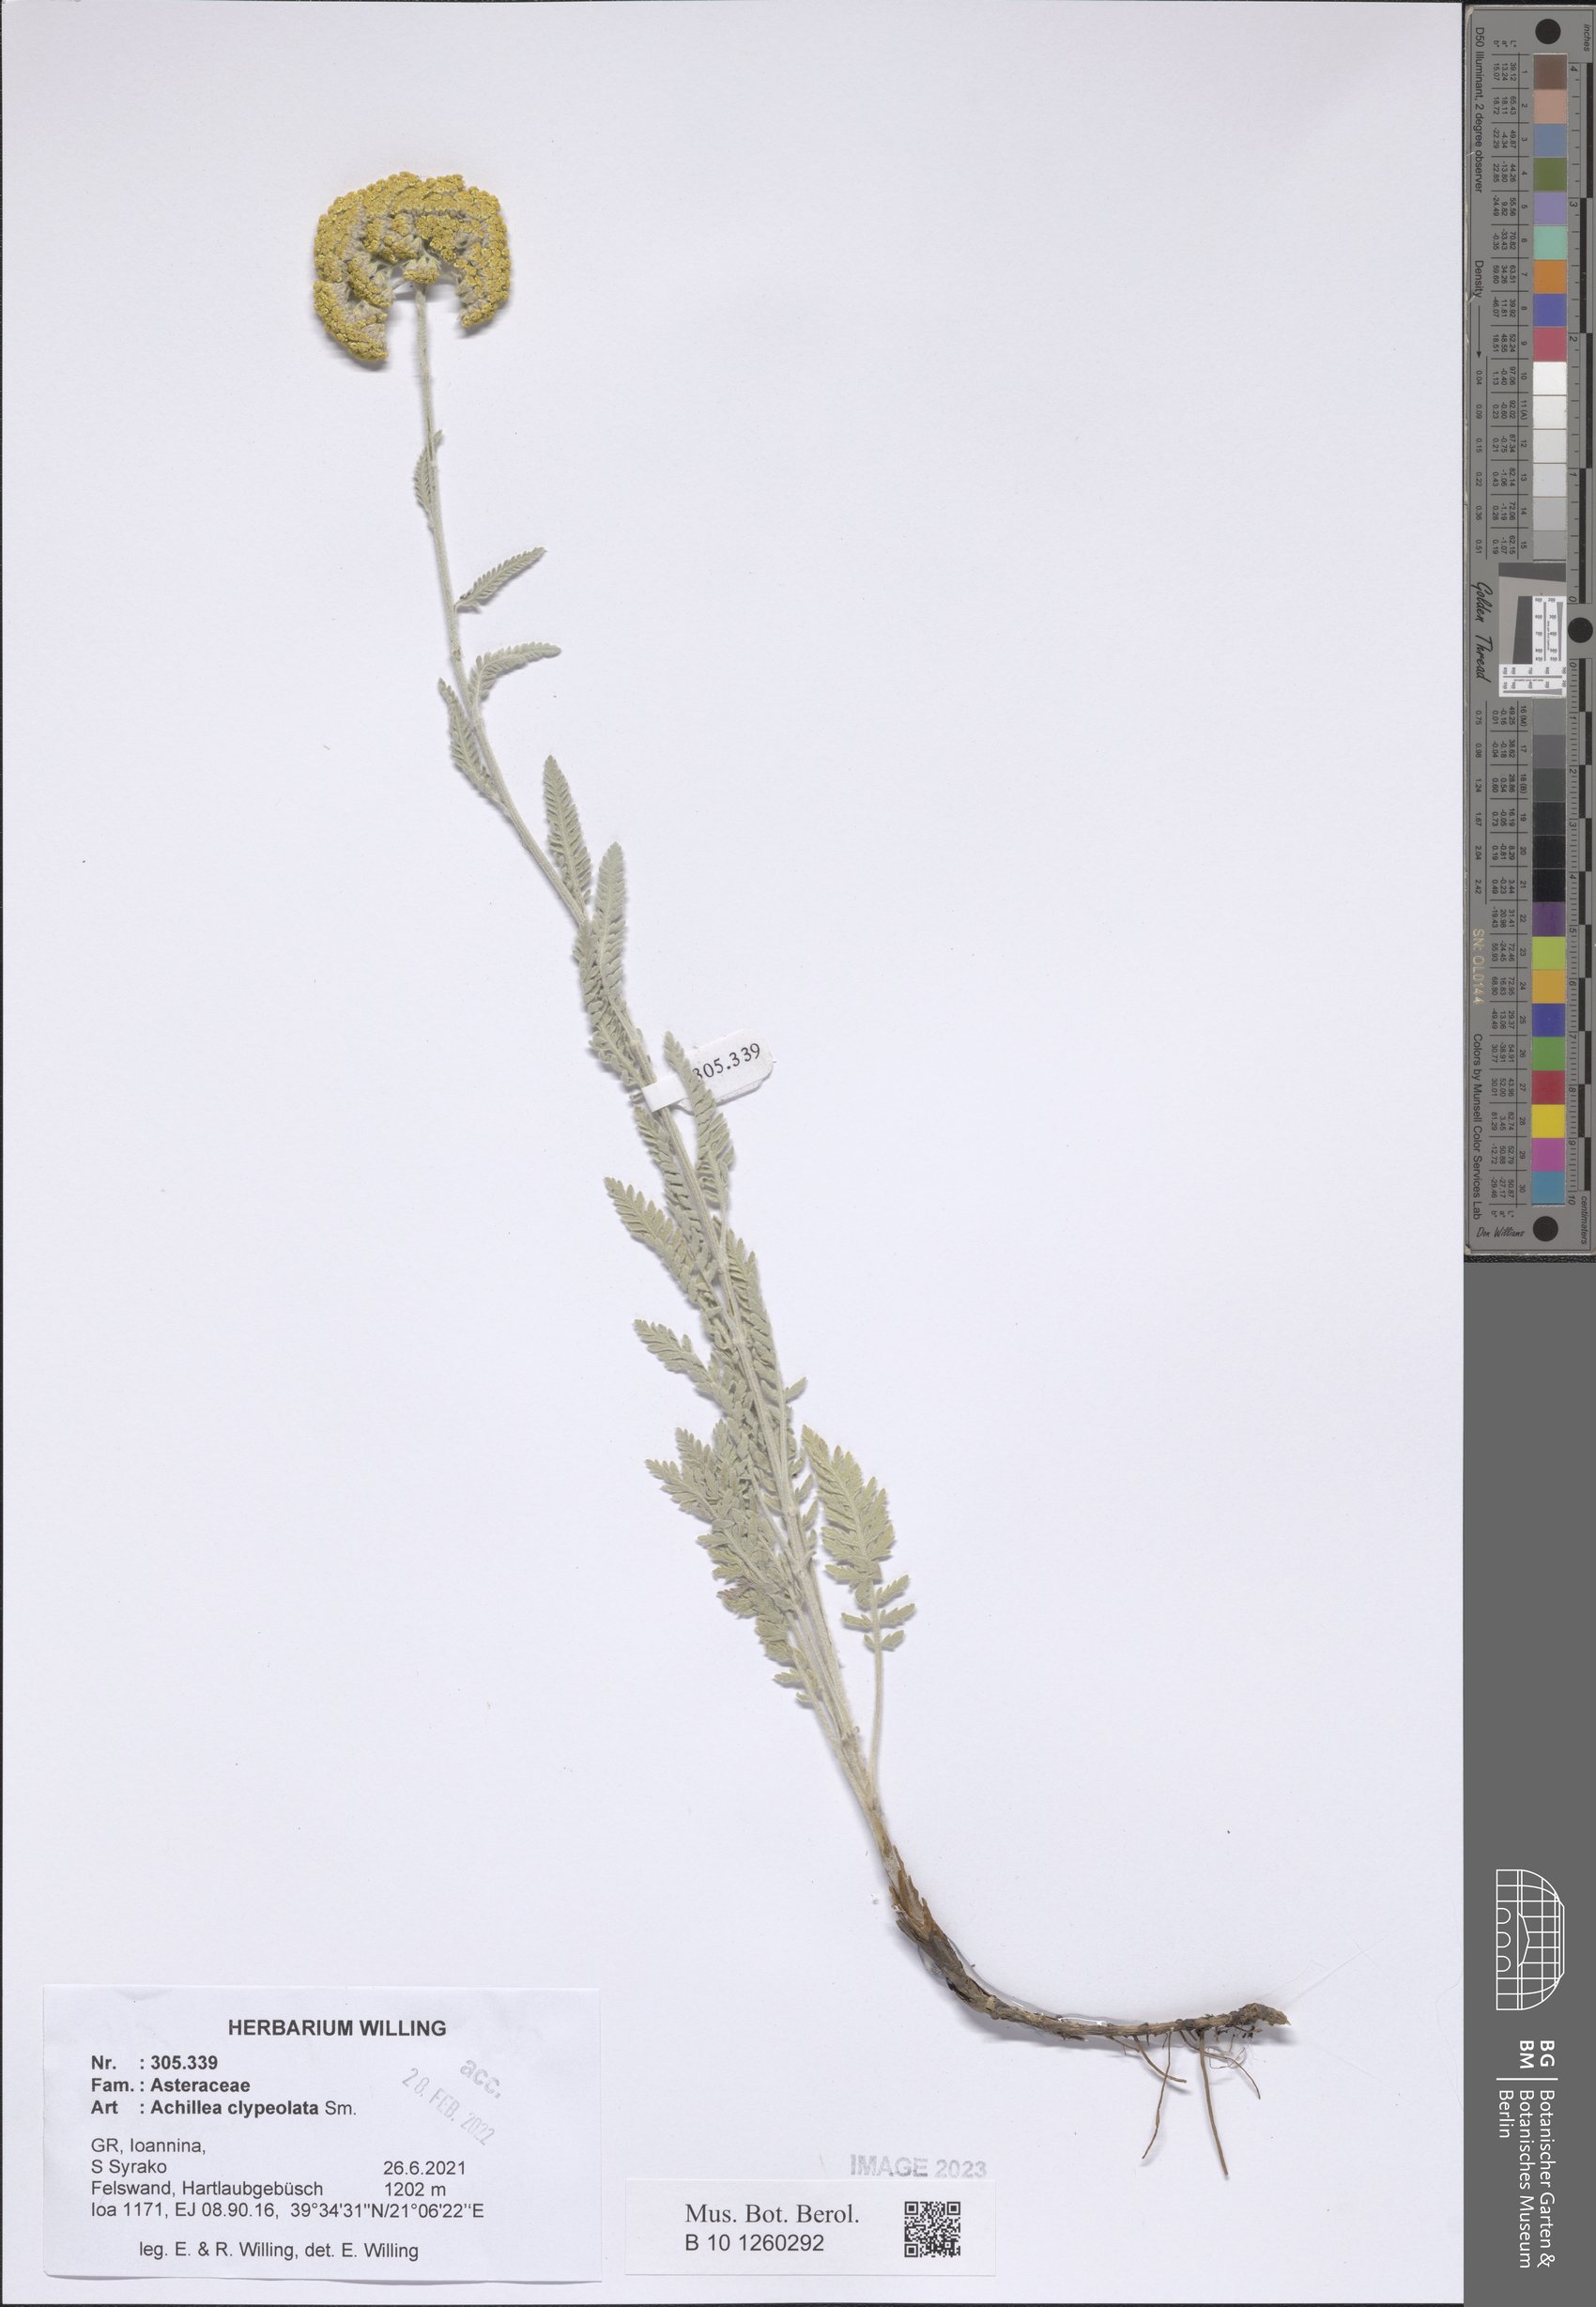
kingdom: Plantae
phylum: Tracheophyta
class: Magnoliopsida
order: Asterales
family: Asteraceae
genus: Achillea
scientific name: Achillea clypeolata
